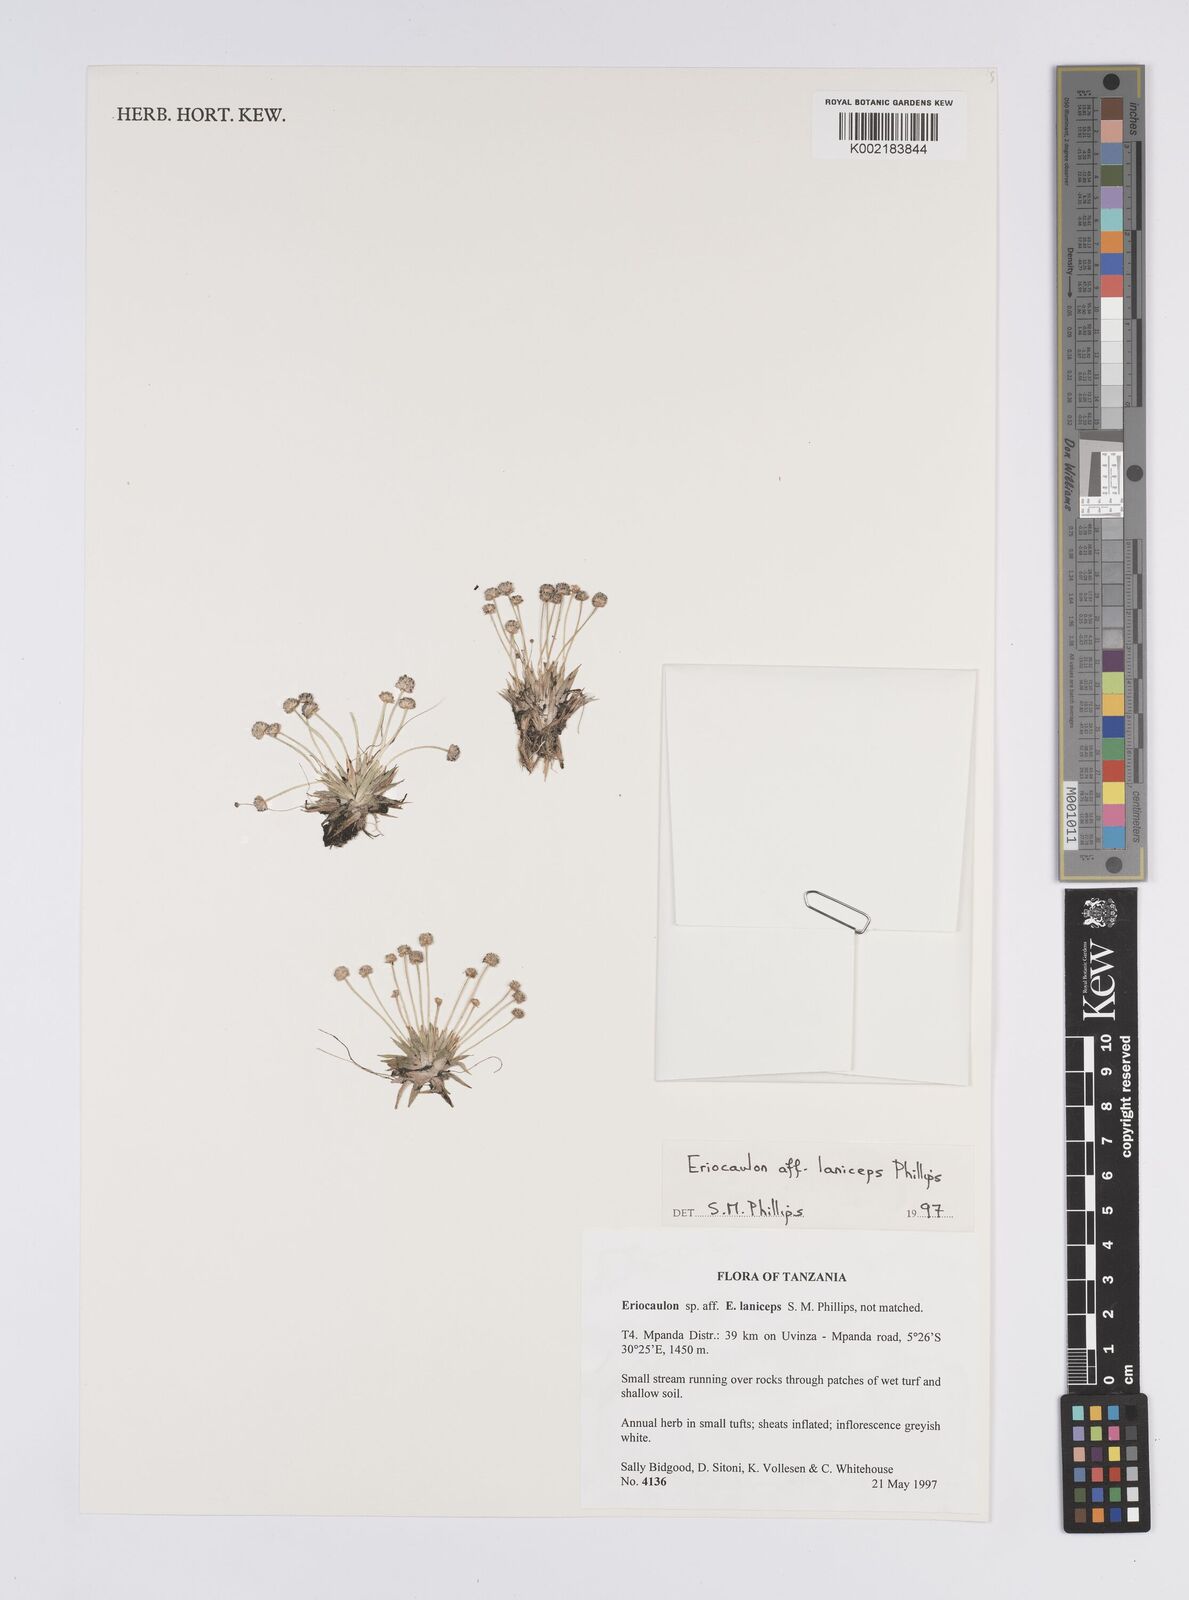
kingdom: Plantae
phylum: Tracheophyta
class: Liliopsida
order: Poales
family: Eriocaulaceae
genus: Eriocaulon
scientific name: Eriocaulon laniceps
